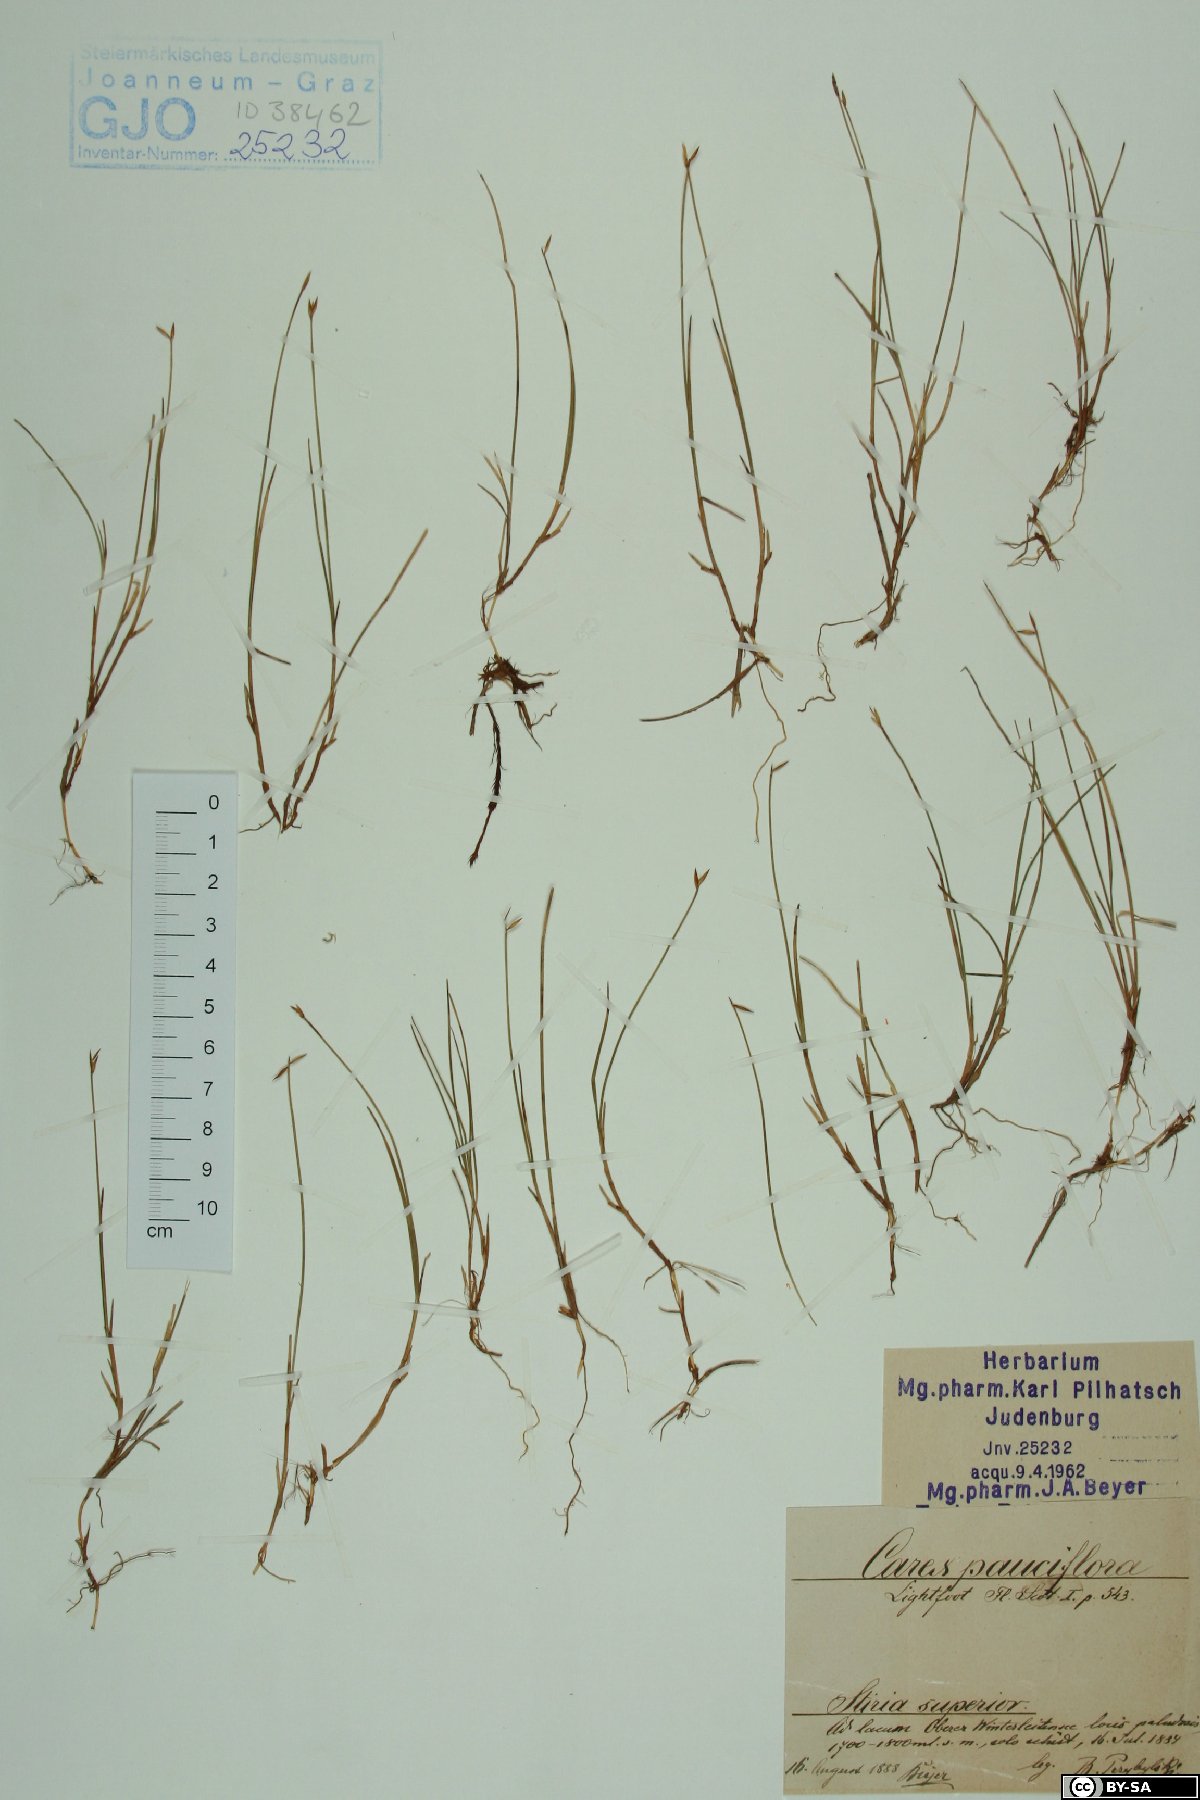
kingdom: Plantae
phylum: Tracheophyta
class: Liliopsida
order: Poales
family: Cyperaceae
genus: Carex
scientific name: Carex pauciflora
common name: Few-flowered sedge
